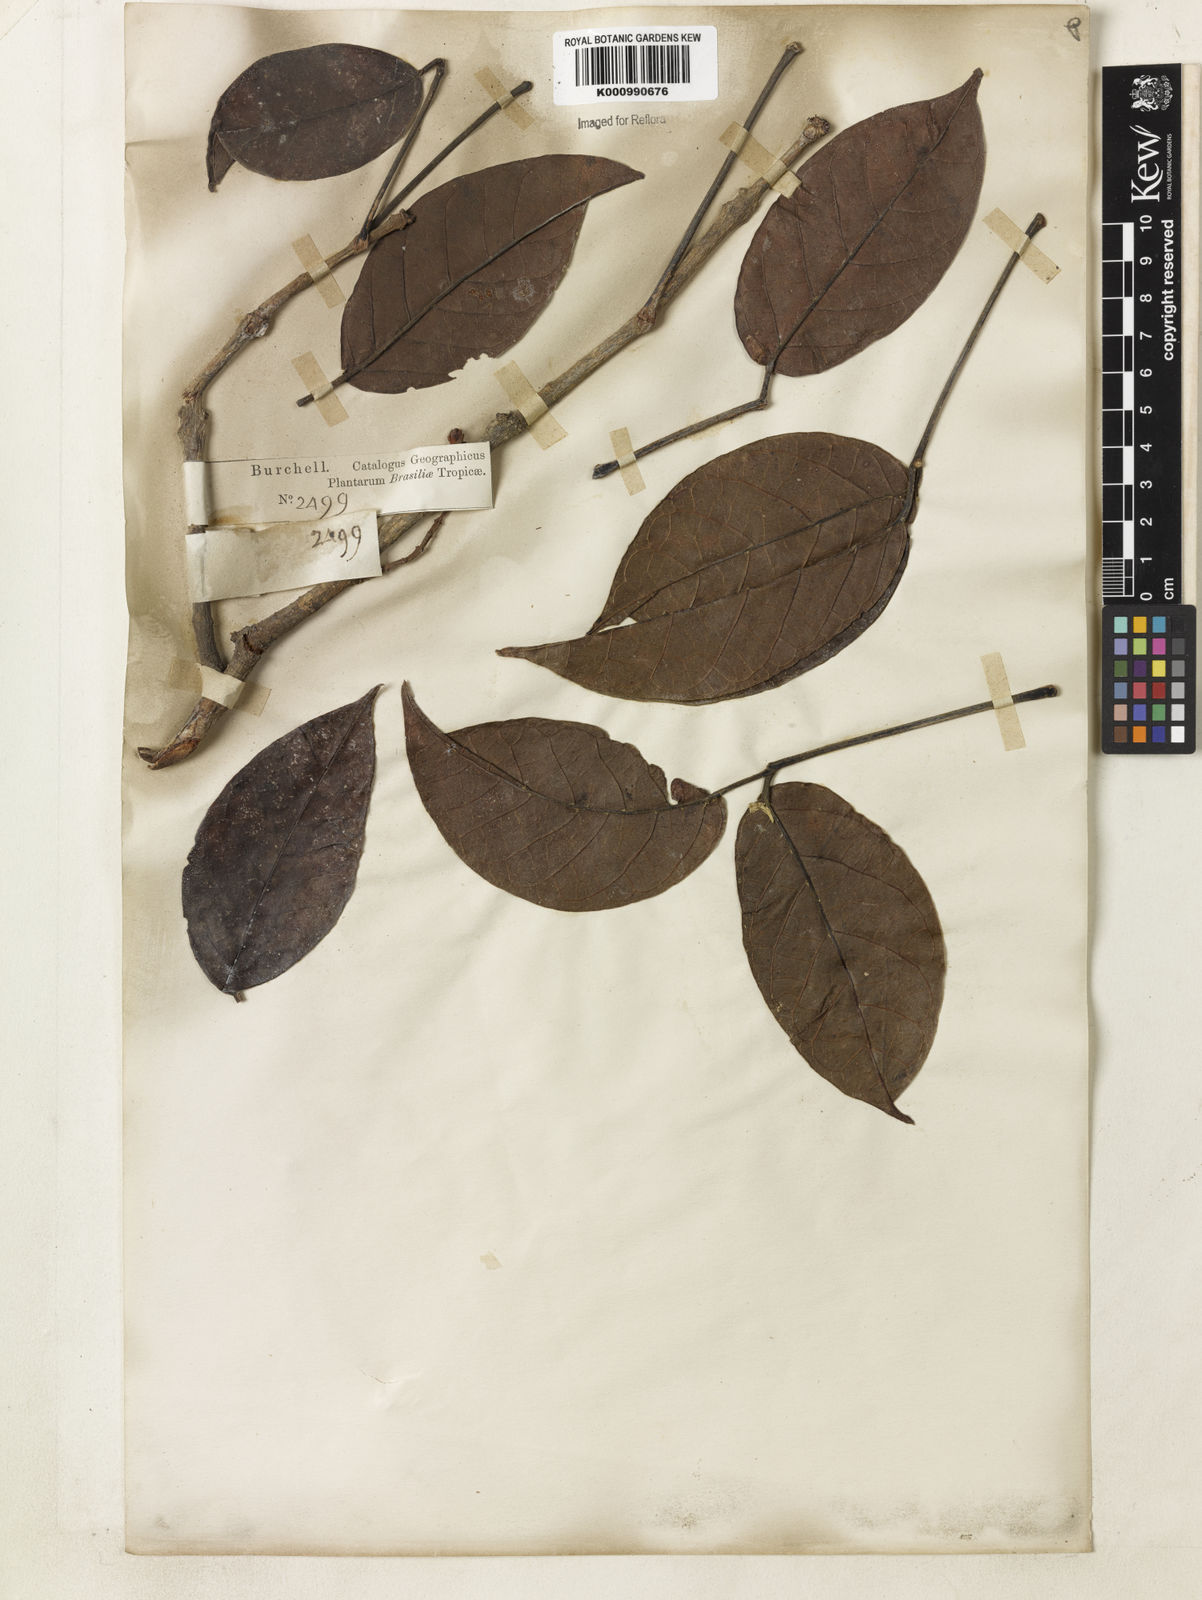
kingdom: Plantae
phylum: Tracheophyta
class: Magnoliopsida
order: Lamiales
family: Bignoniaceae
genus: Callichlamys
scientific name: Callichlamys latifolia
